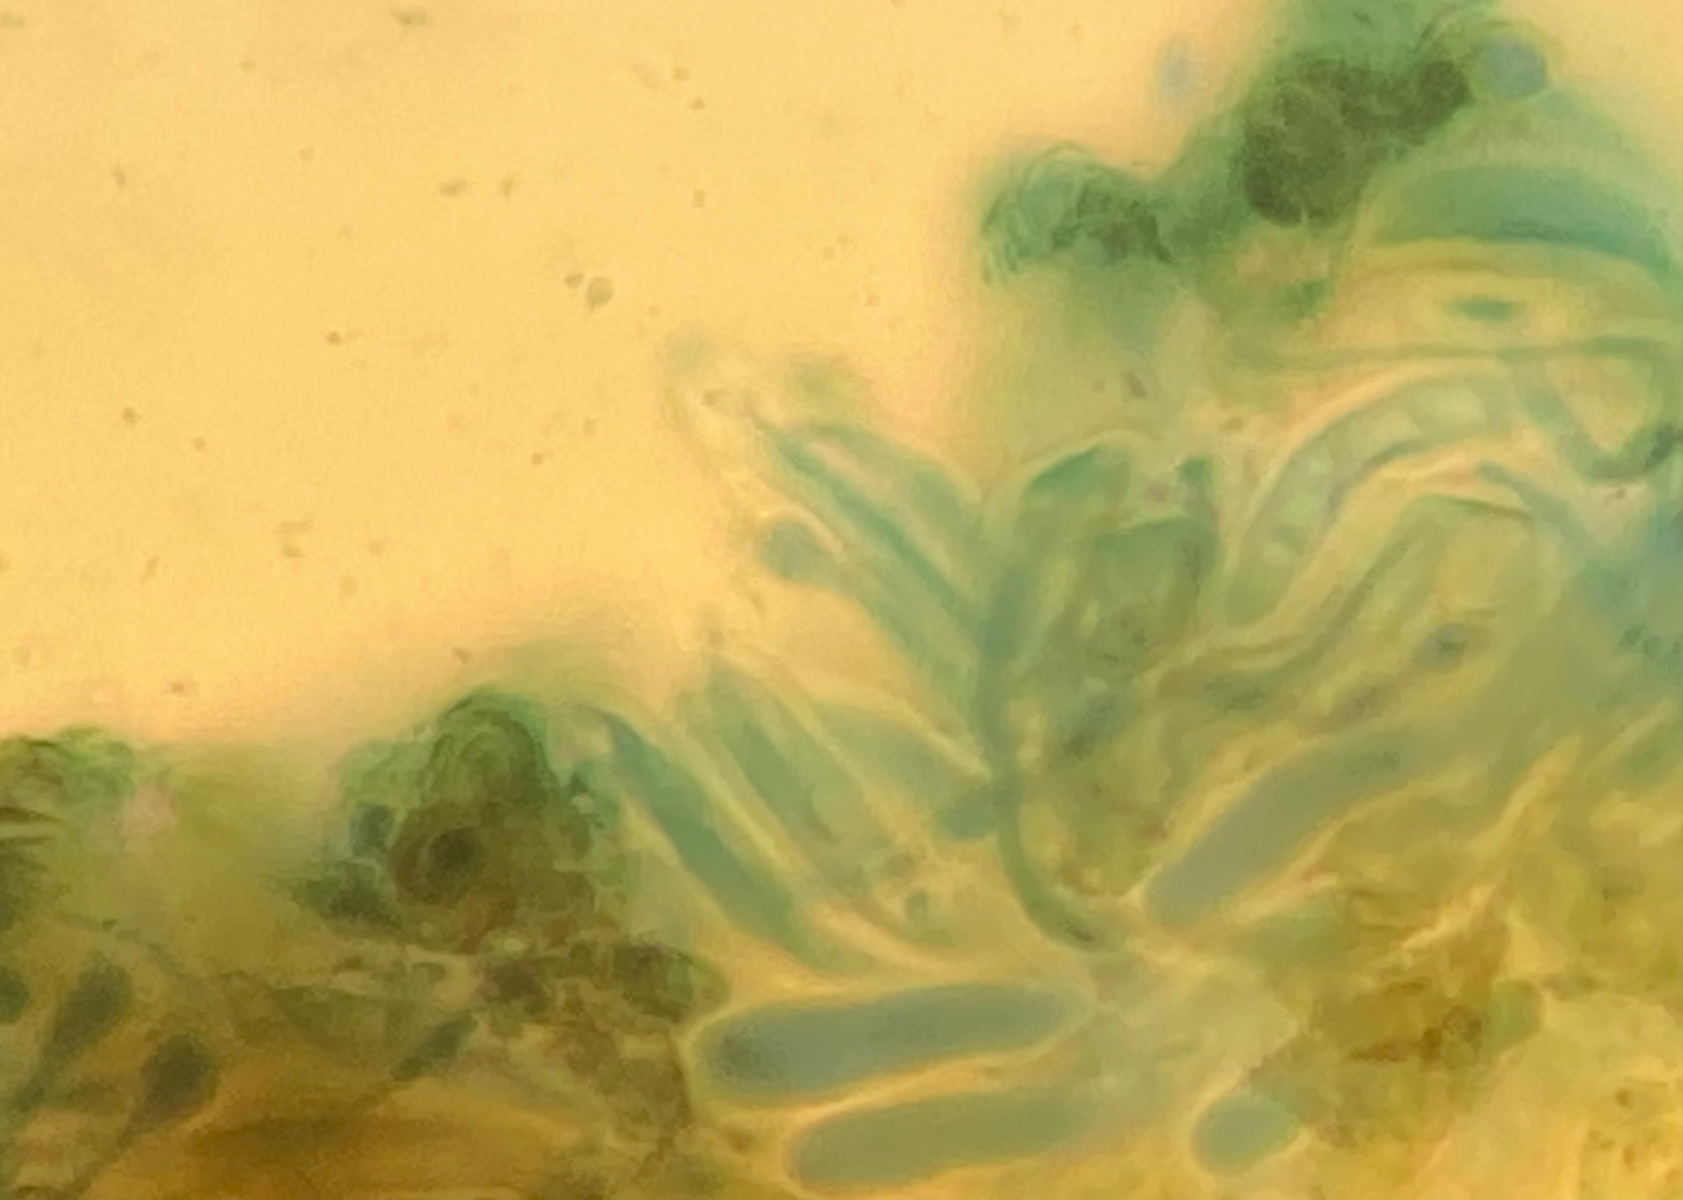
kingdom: Fungi
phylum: Ascomycota
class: Leotiomycetes
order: Helotiales
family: Helotiaceae
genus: Durella
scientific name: Durella commutata
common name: sort linseskive
